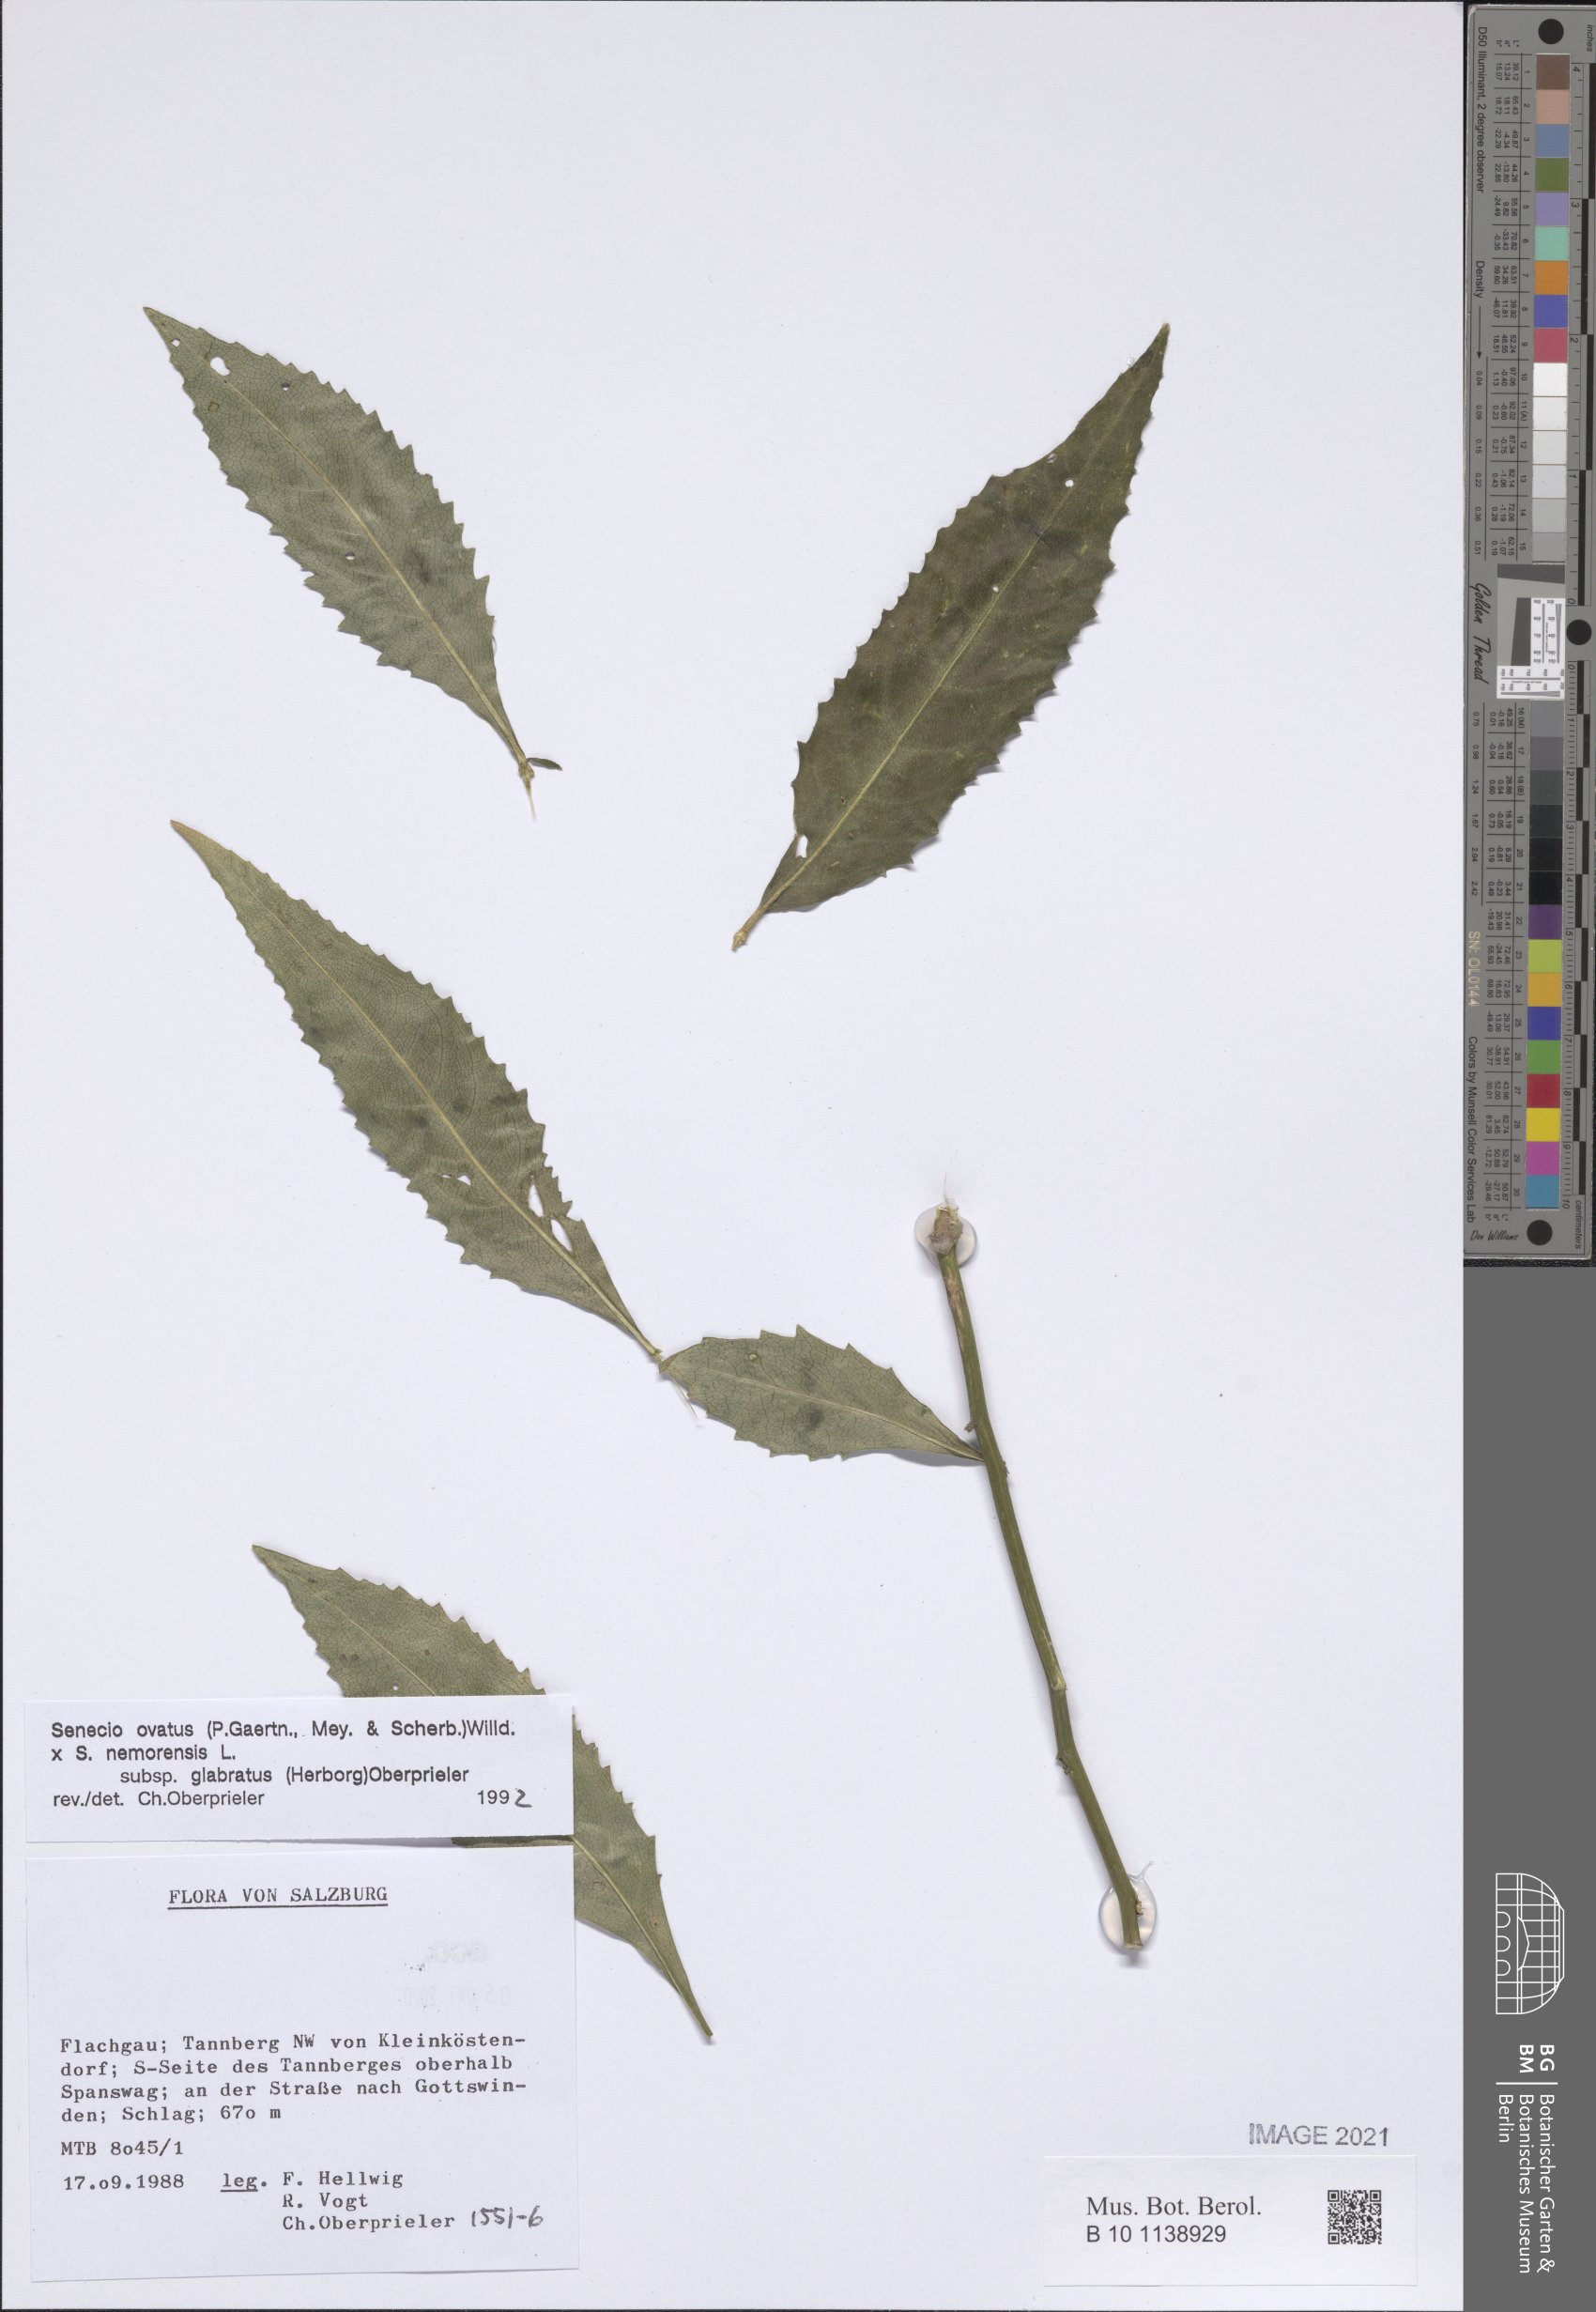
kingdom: Plantae
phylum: Tracheophyta
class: Magnoliopsida
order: Asterales
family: Asteraceae
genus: Senecio
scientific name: Senecio ovatus
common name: Wood ragwort
